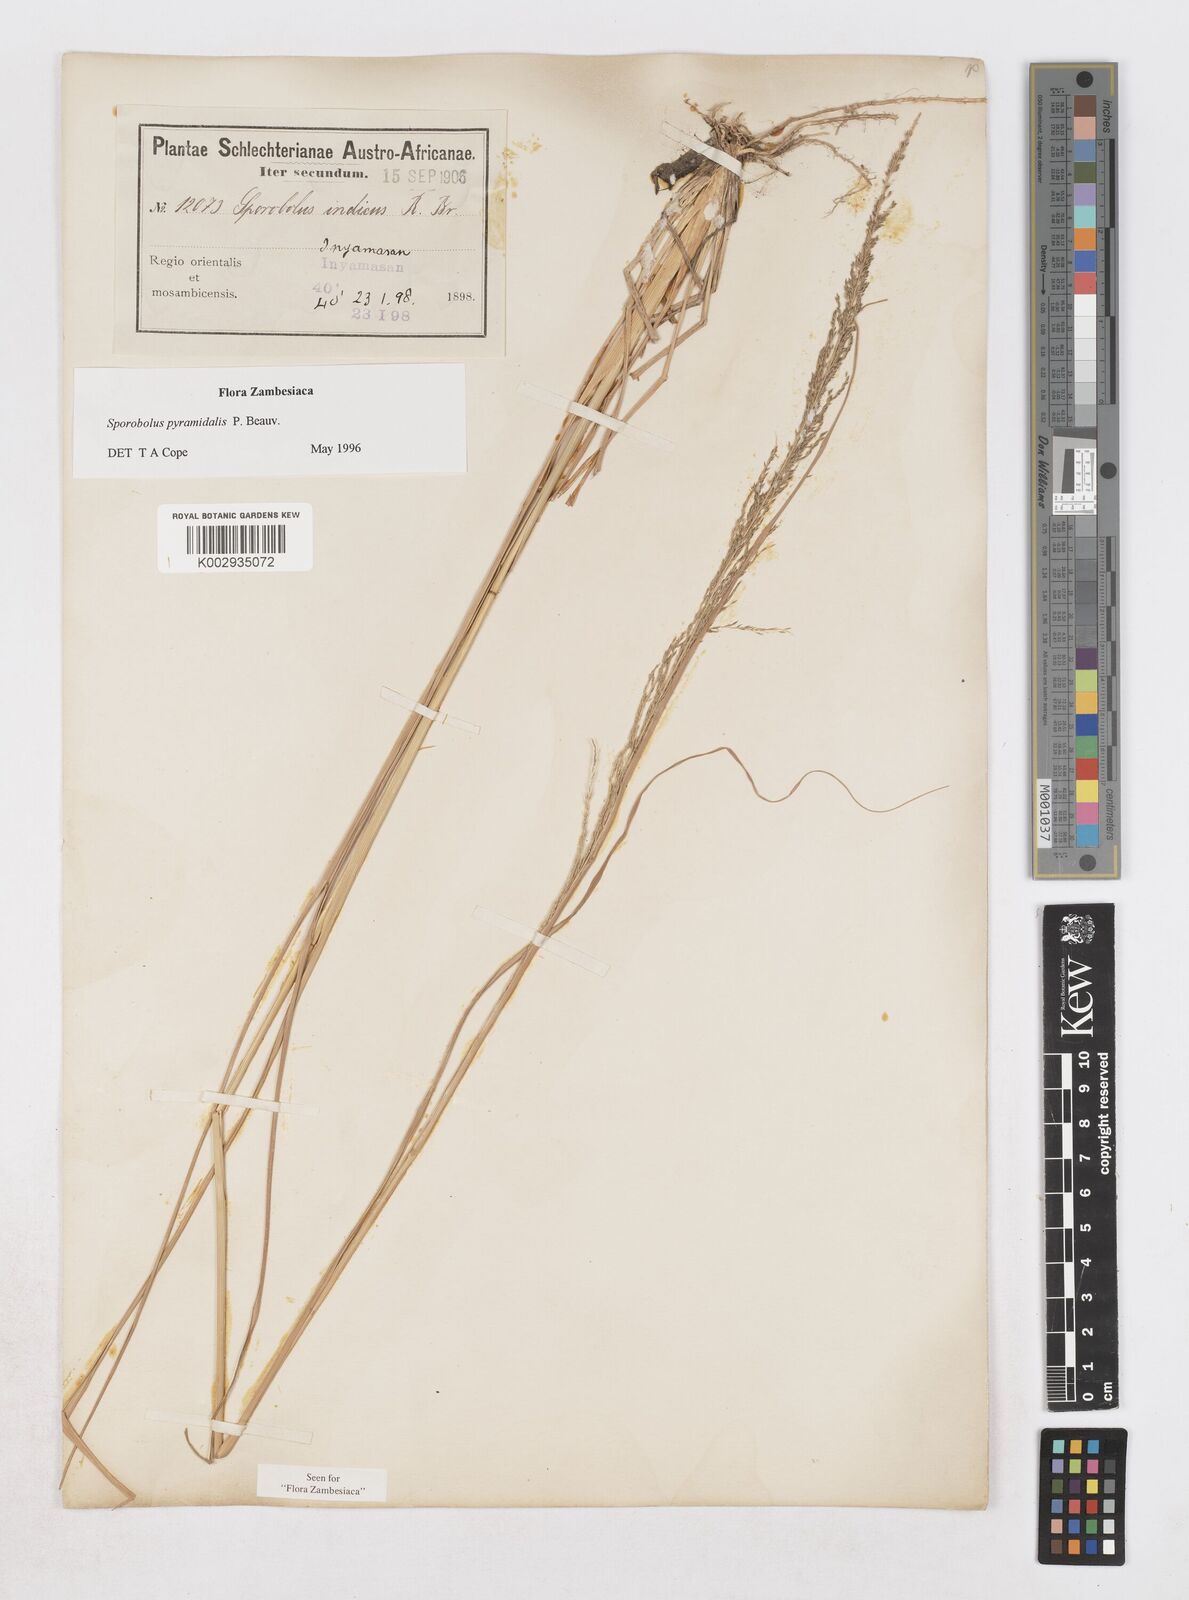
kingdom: Plantae
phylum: Tracheophyta
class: Liliopsida
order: Poales
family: Poaceae
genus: Sporobolus
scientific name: Sporobolus pyramidalis
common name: West indian dropseed
